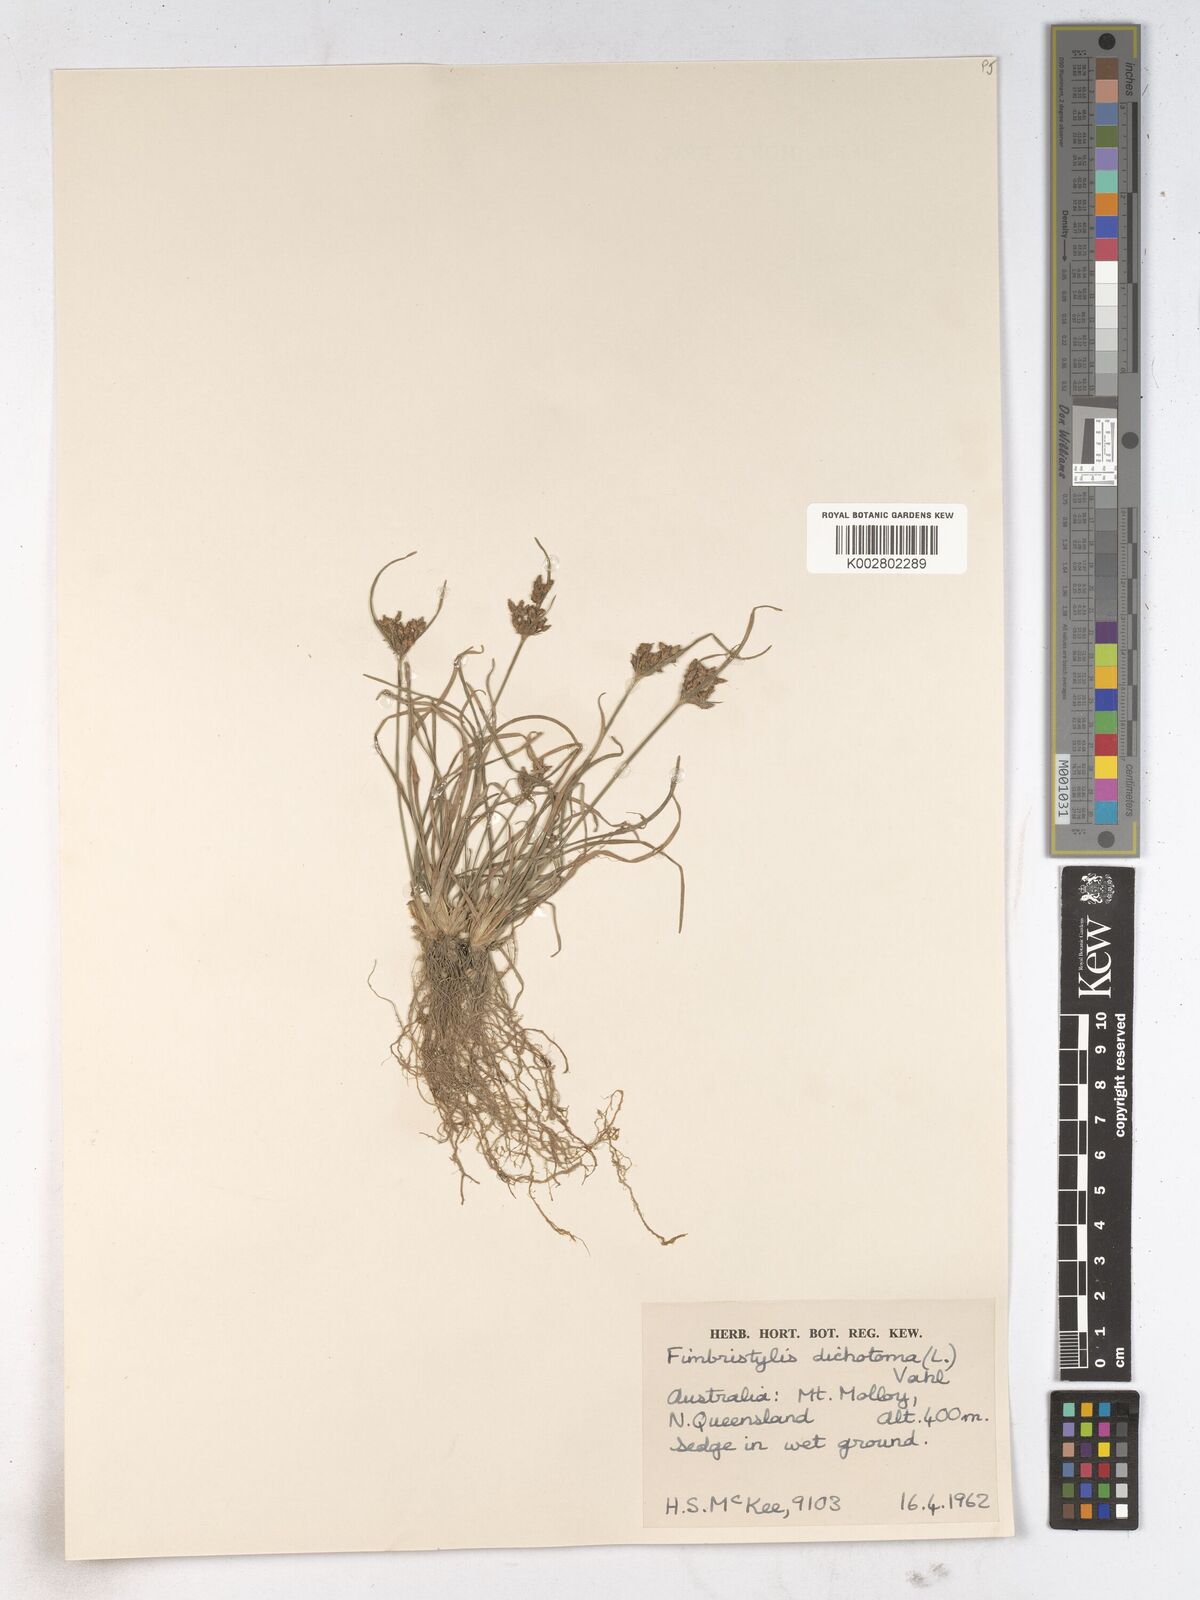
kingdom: Plantae
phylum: Tracheophyta
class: Liliopsida
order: Poales
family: Cyperaceae
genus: Fimbristylis
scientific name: Fimbristylis dichotoma
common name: Forked fimbry
